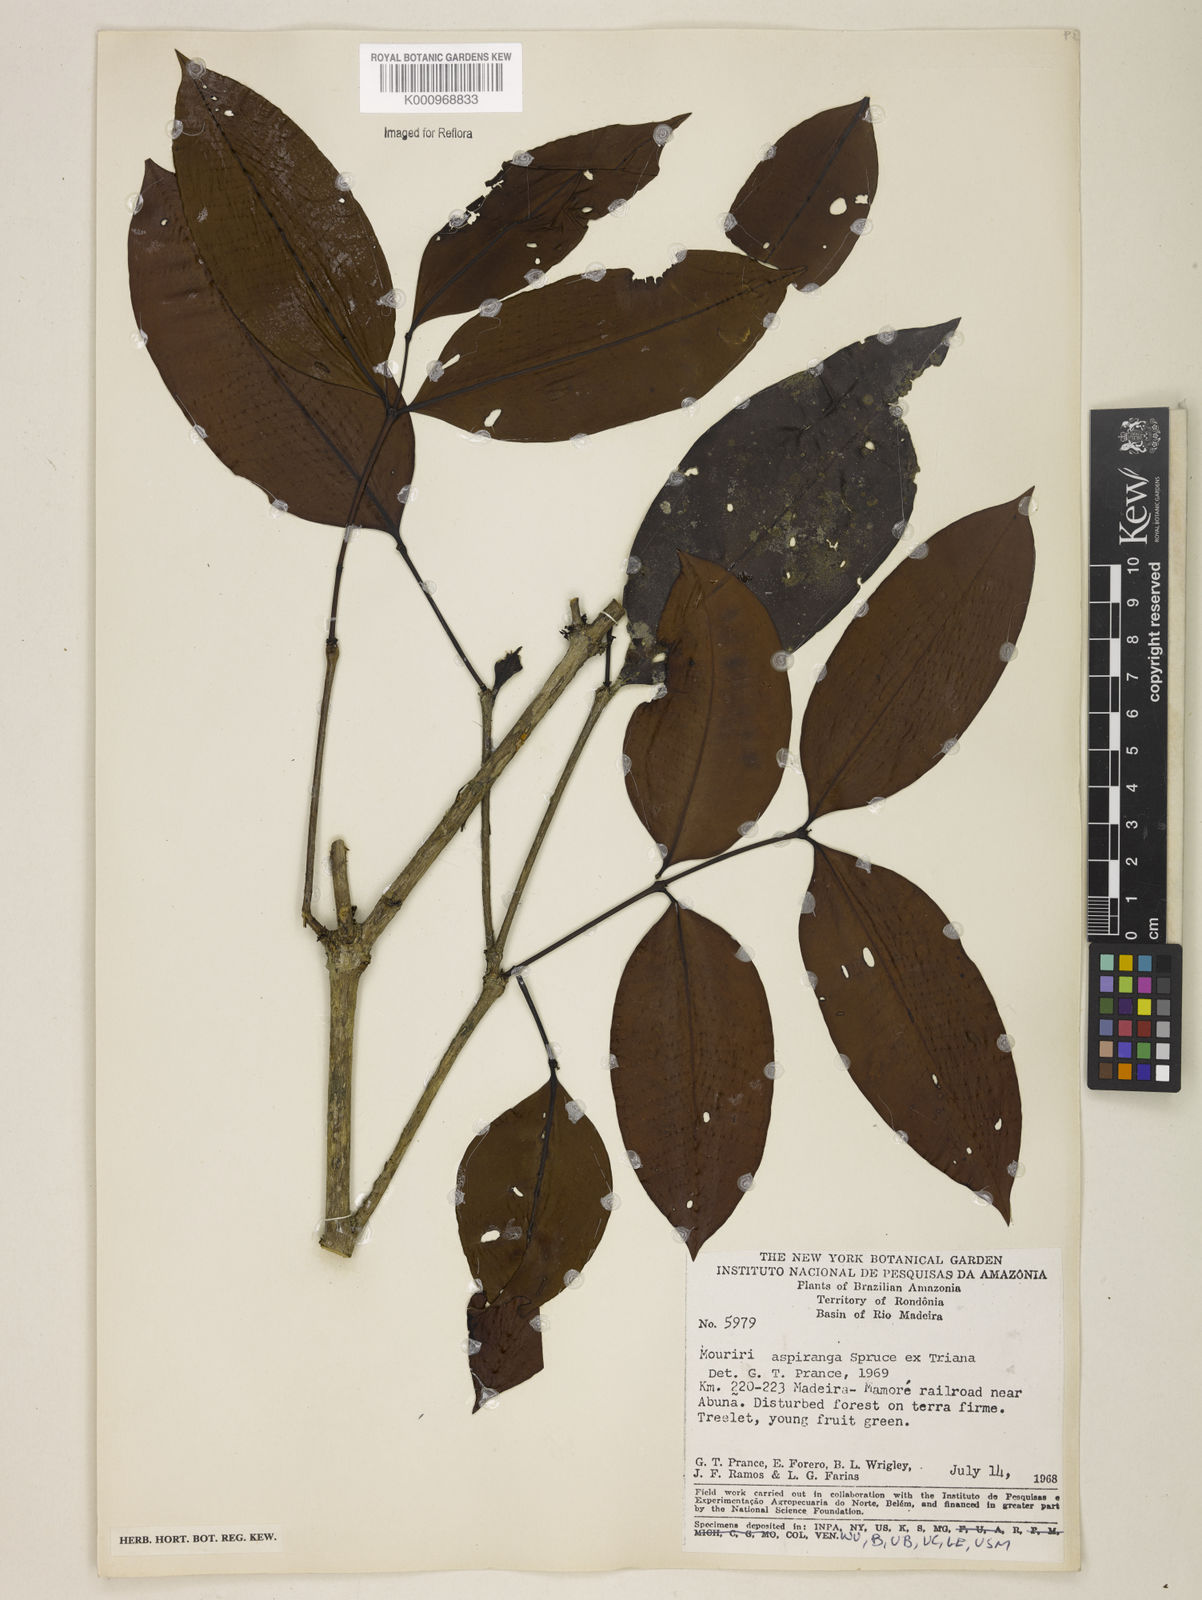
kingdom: Plantae
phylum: Tracheophyta
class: Magnoliopsida
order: Myrtales
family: Melastomataceae
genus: Mouriri
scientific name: Mouriri apiranga
